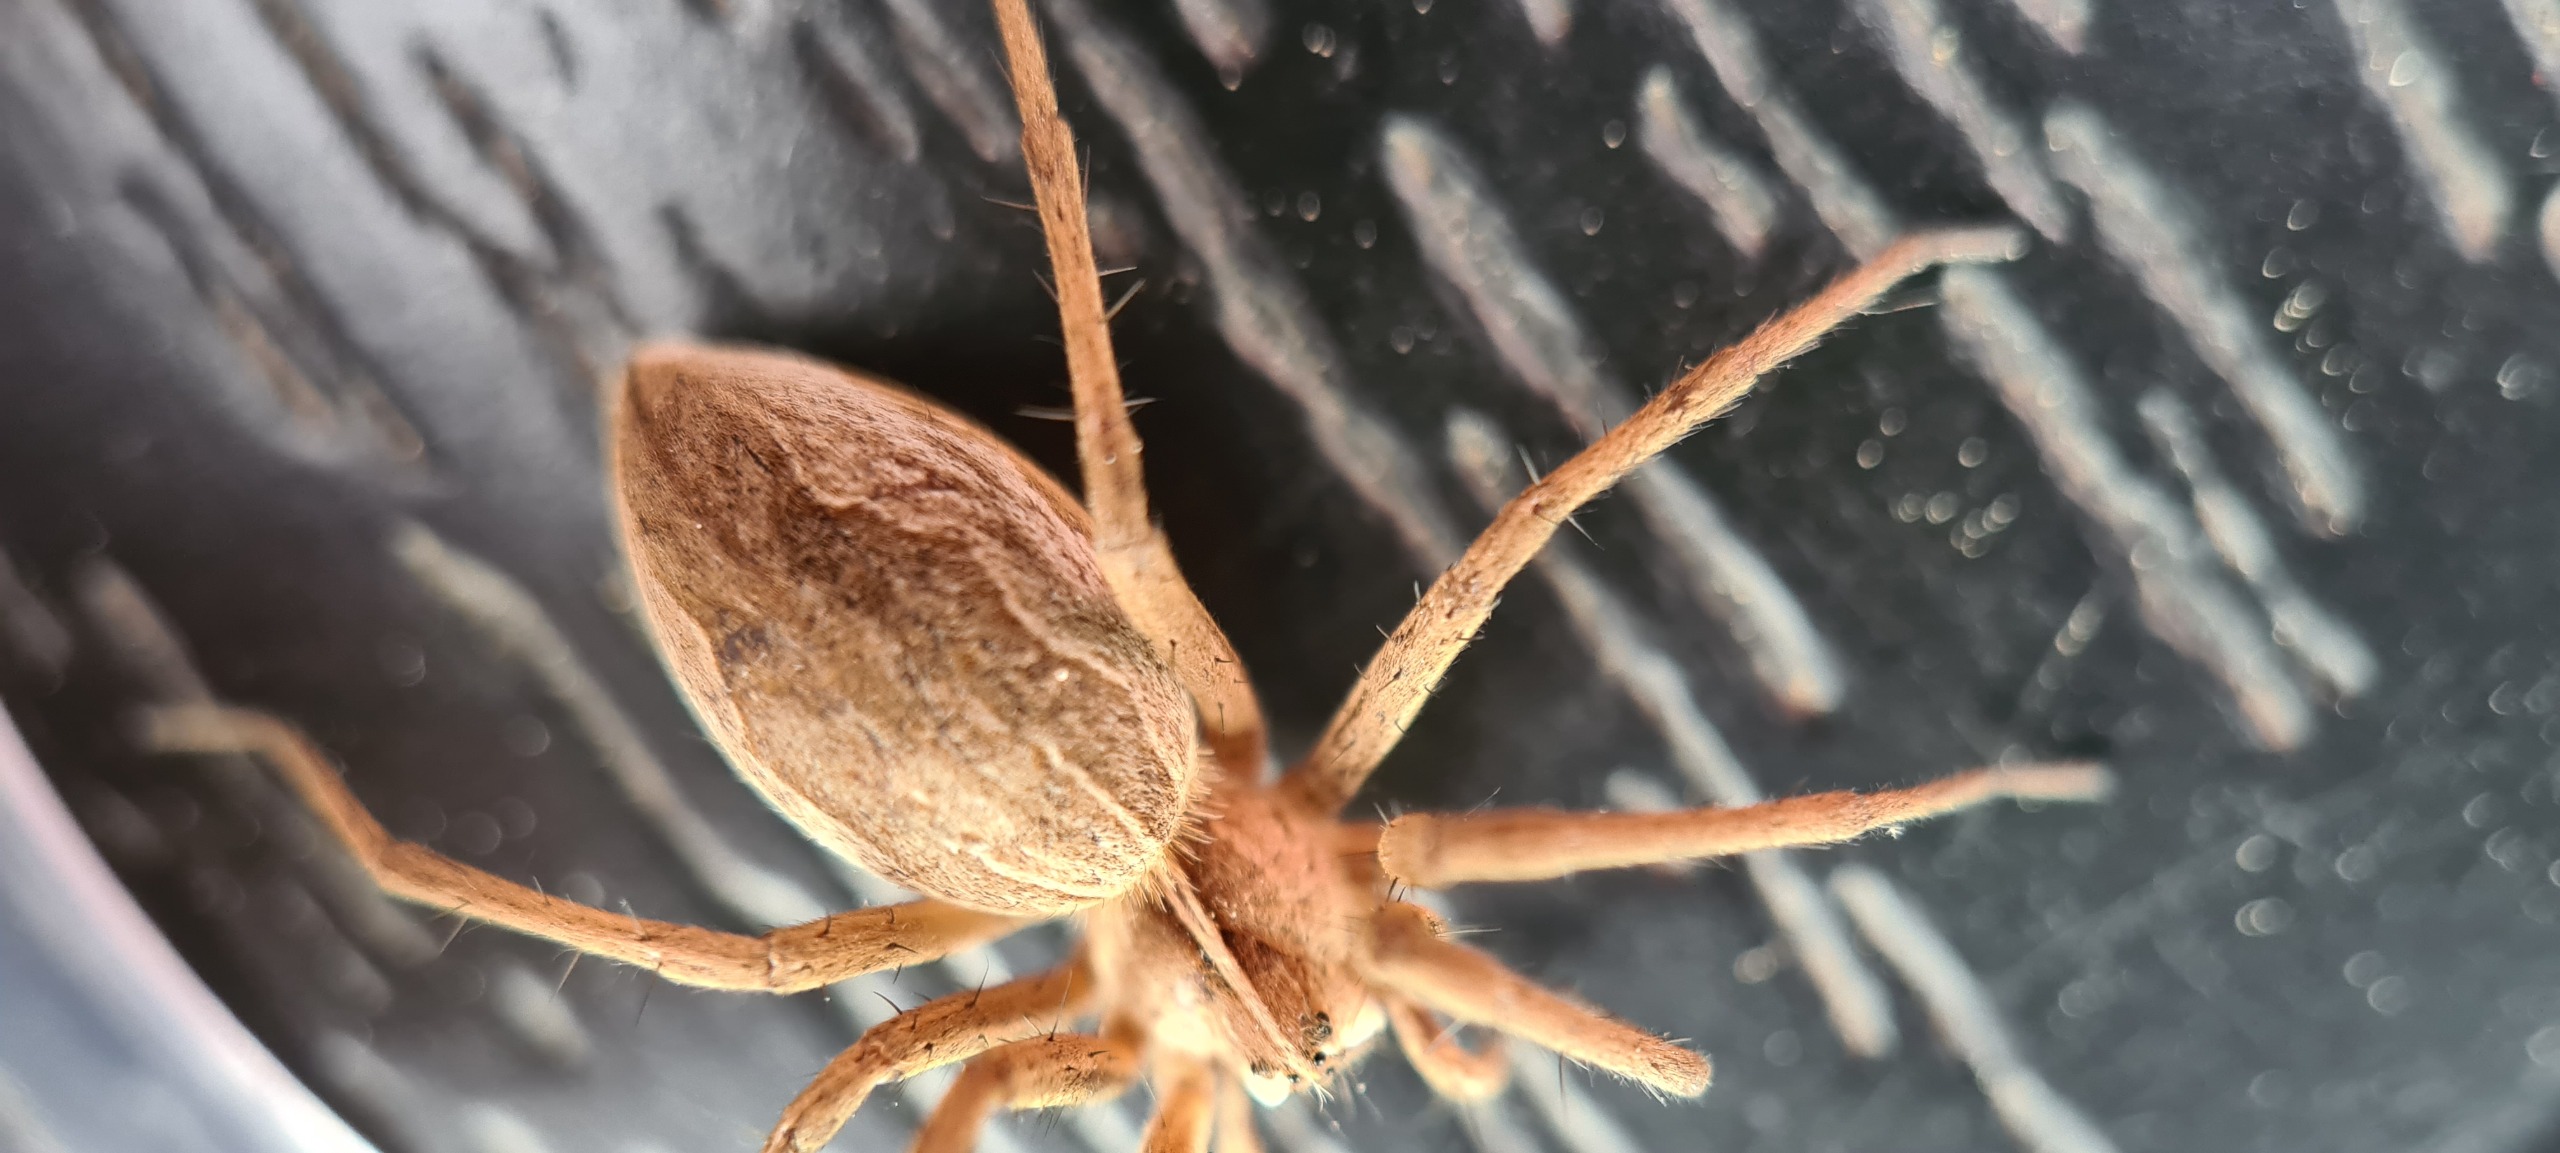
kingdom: Animalia
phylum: Arthropoda
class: Arachnida
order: Araneae
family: Pisauridae
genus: Pisaura
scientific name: Pisaura mirabilis
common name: Almindelig rovedderkop
